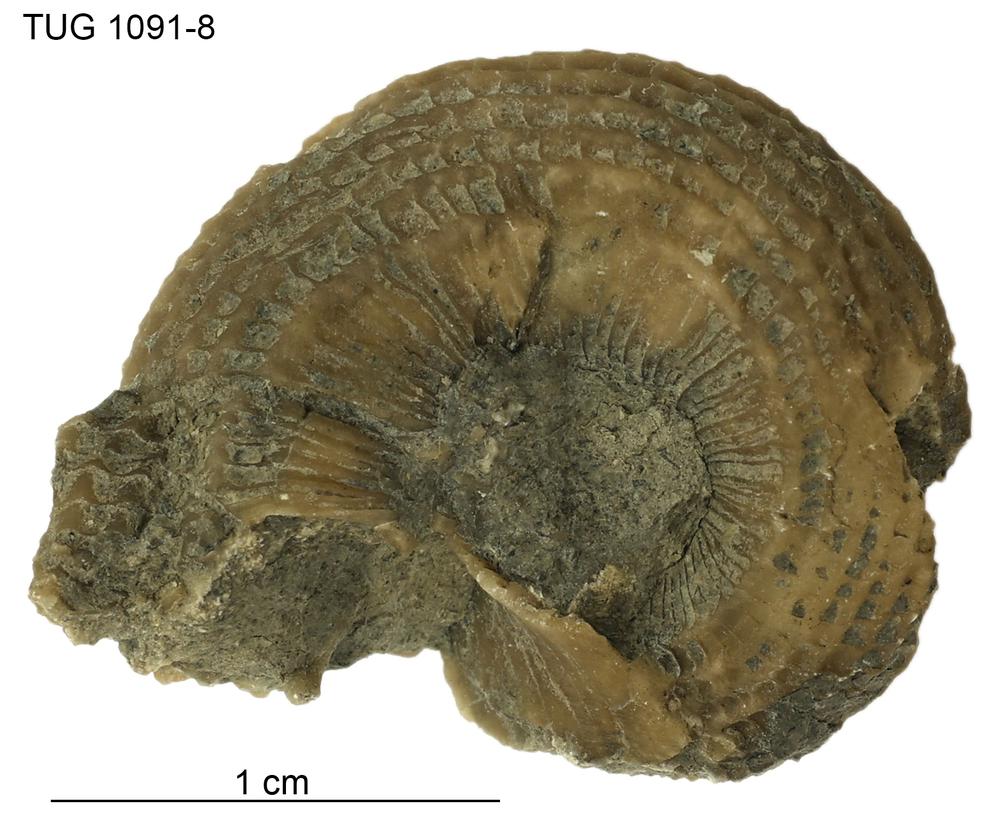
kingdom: Animalia
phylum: Mollusca
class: Gastropoda
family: Euomphalidae
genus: Poleumita
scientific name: Poleumita Euomphalus discors
